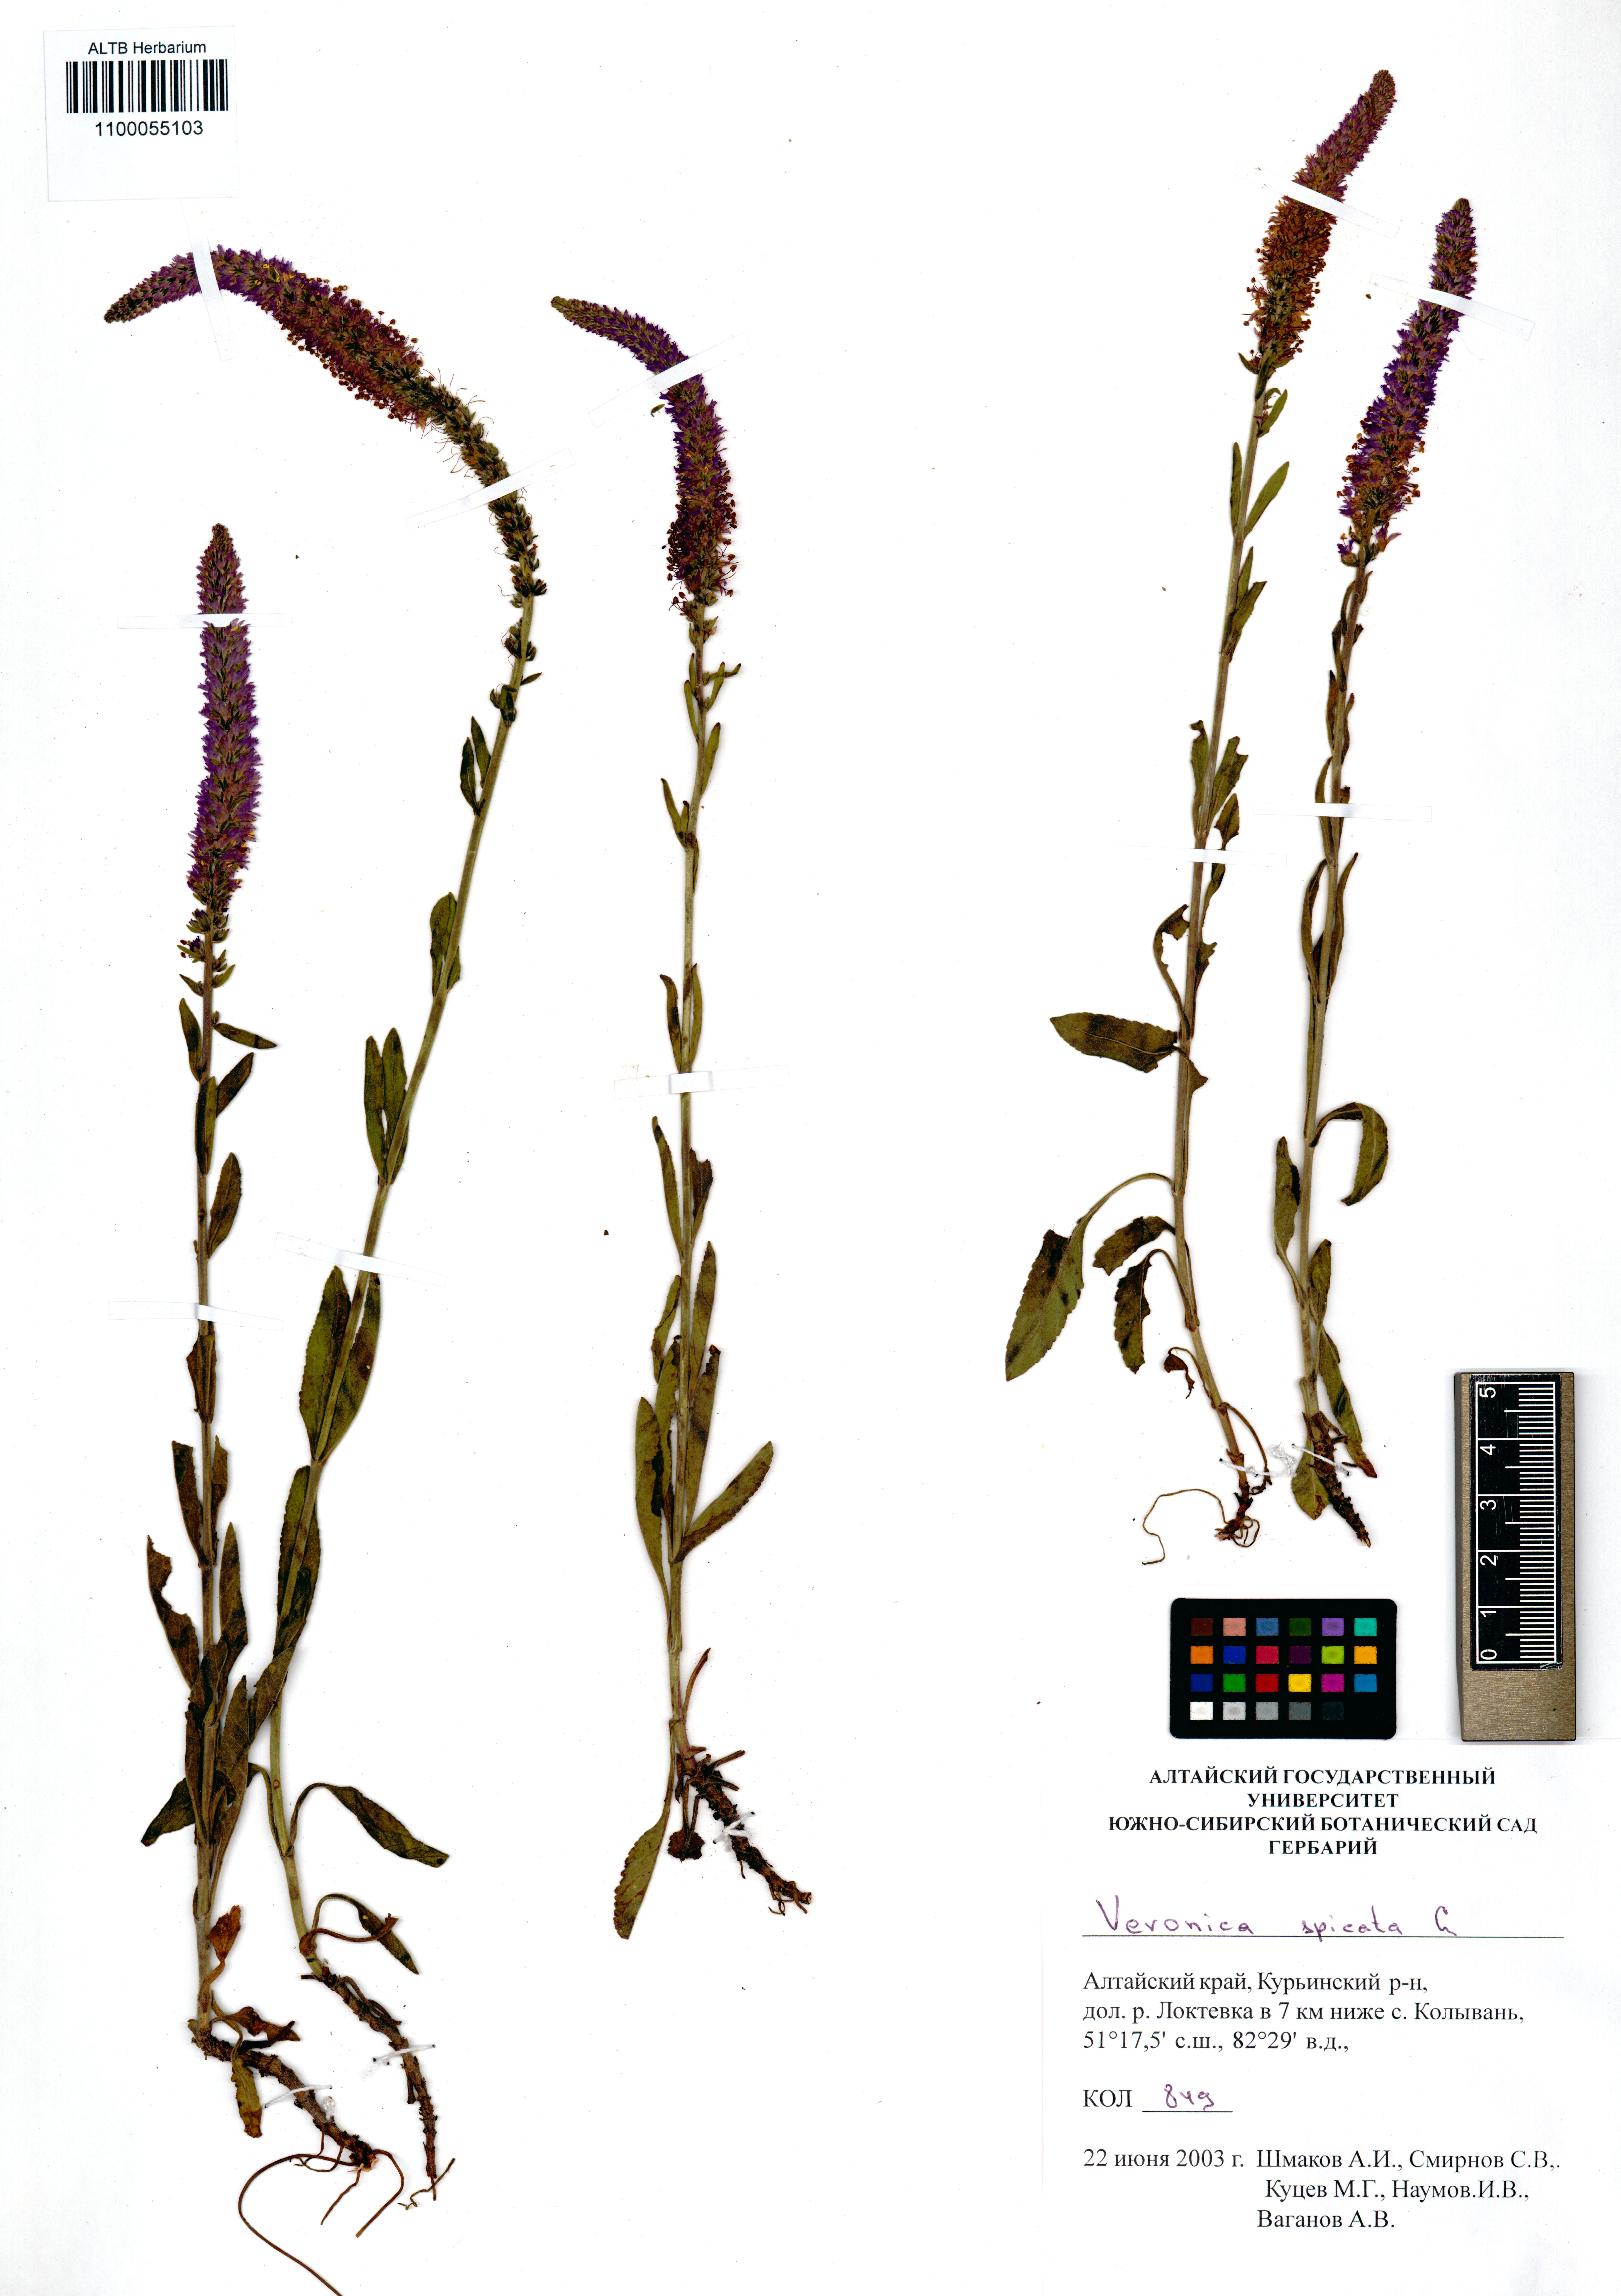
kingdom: Plantae
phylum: Tracheophyta
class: Magnoliopsida
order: Lamiales
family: Plantaginaceae
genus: Veronica
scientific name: Veronica spicata
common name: Spiked speedwell
